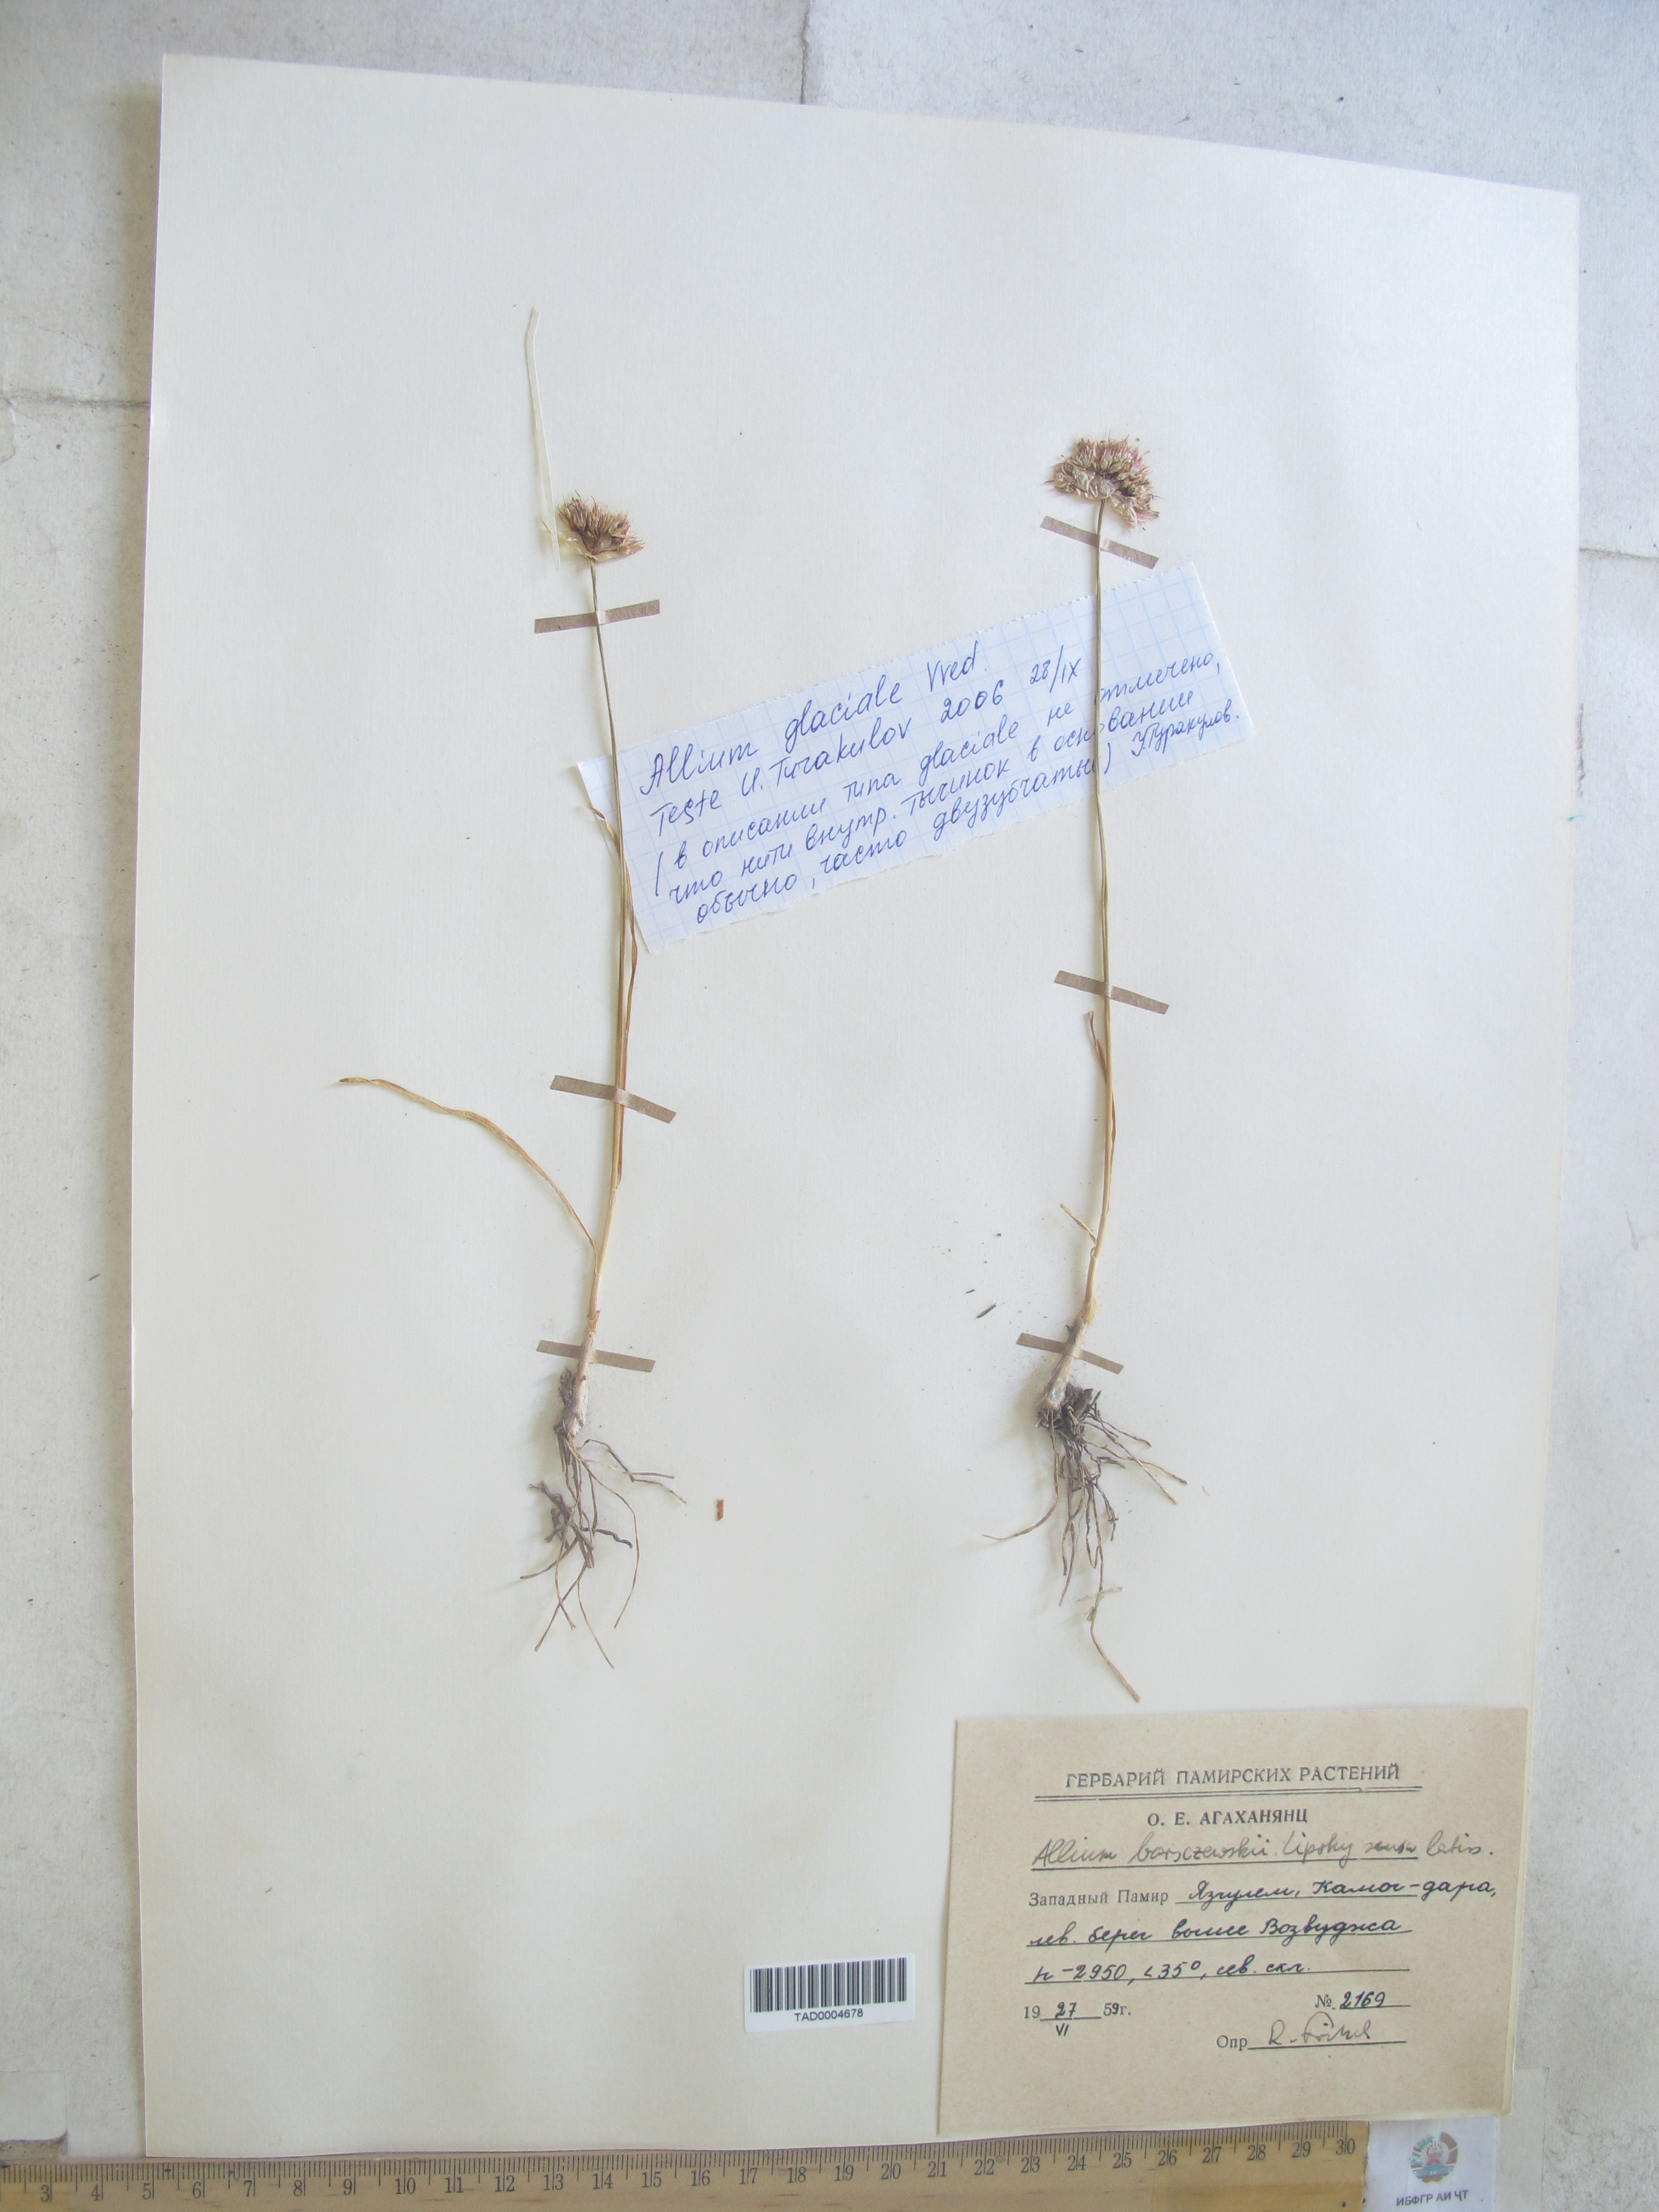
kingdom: Plantae
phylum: Tracheophyta
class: Liliopsida
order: Asparagales
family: Amaryllidaceae
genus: Allium
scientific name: Allium barsczewskii
